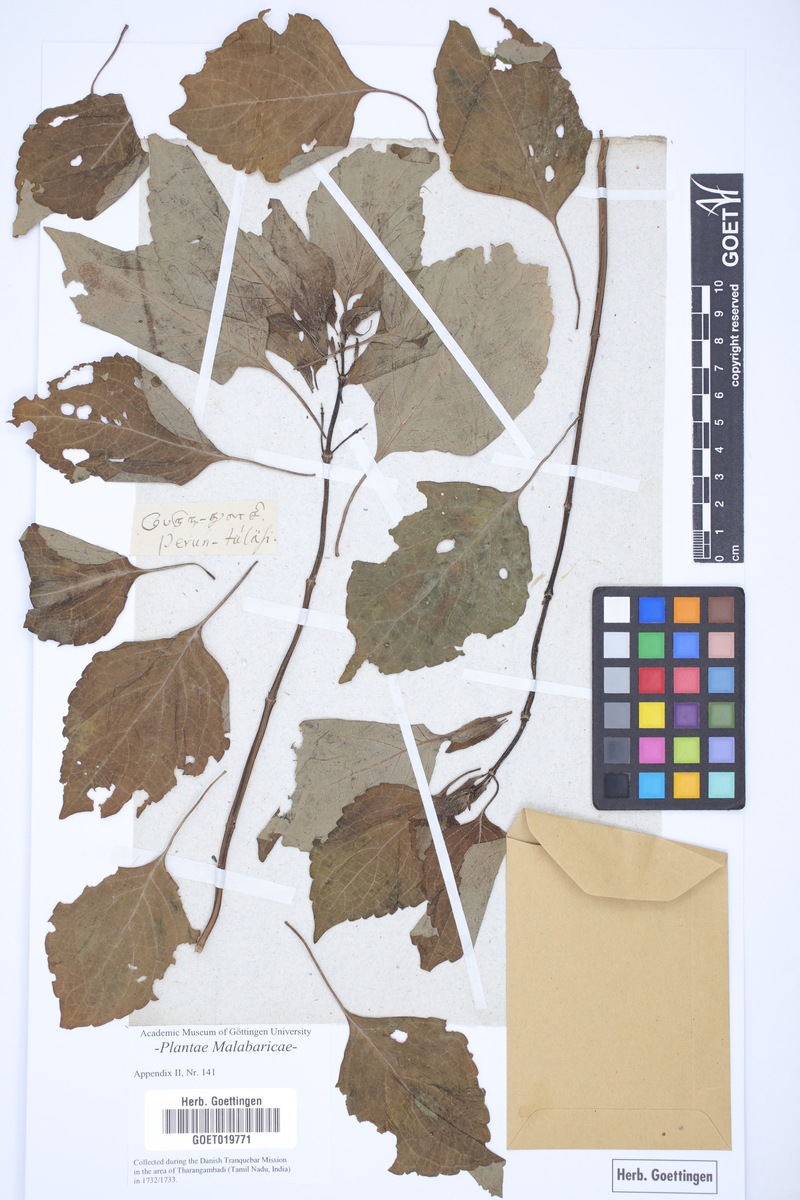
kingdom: Plantae
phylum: Tracheophyta
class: Magnoliopsida
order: Lamiales
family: Lamiaceae
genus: Equilabium
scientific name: Equilabium molle
